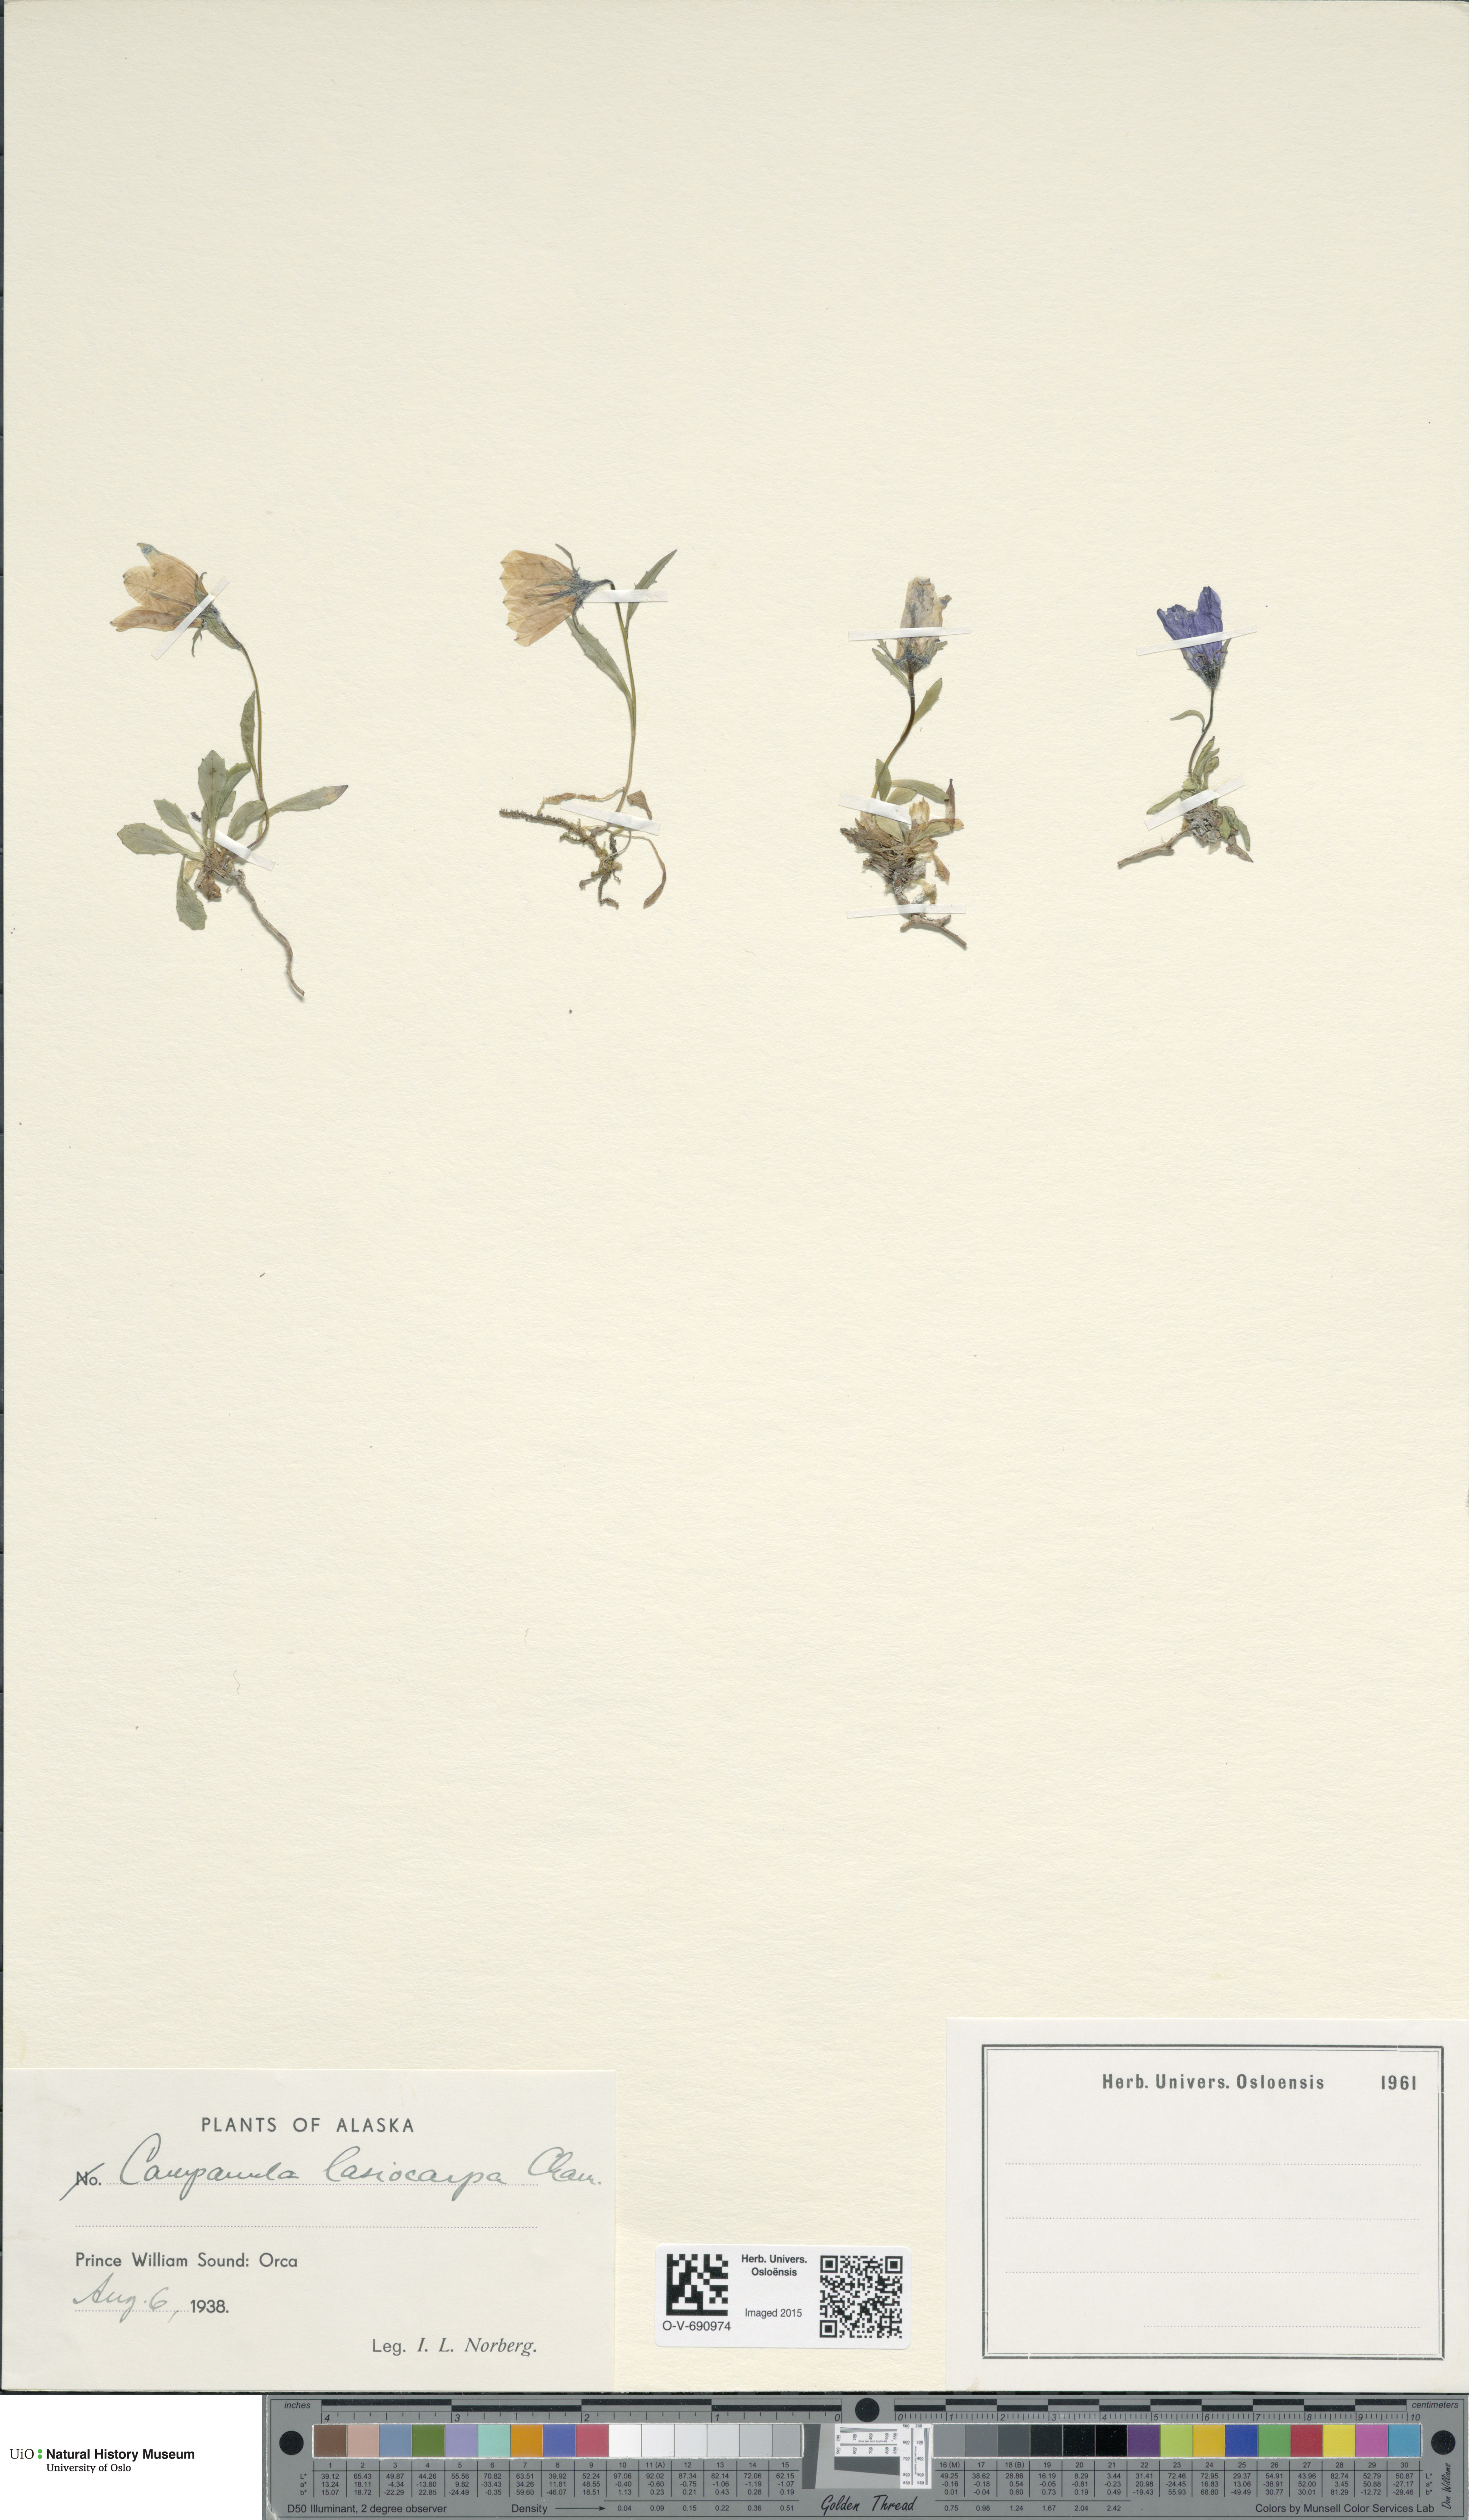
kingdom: Plantae
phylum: Tracheophyta
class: Magnoliopsida
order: Asterales
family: Campanulaceae
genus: Campanula
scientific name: Campanula lasiocarpa
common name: Mountain harebell
